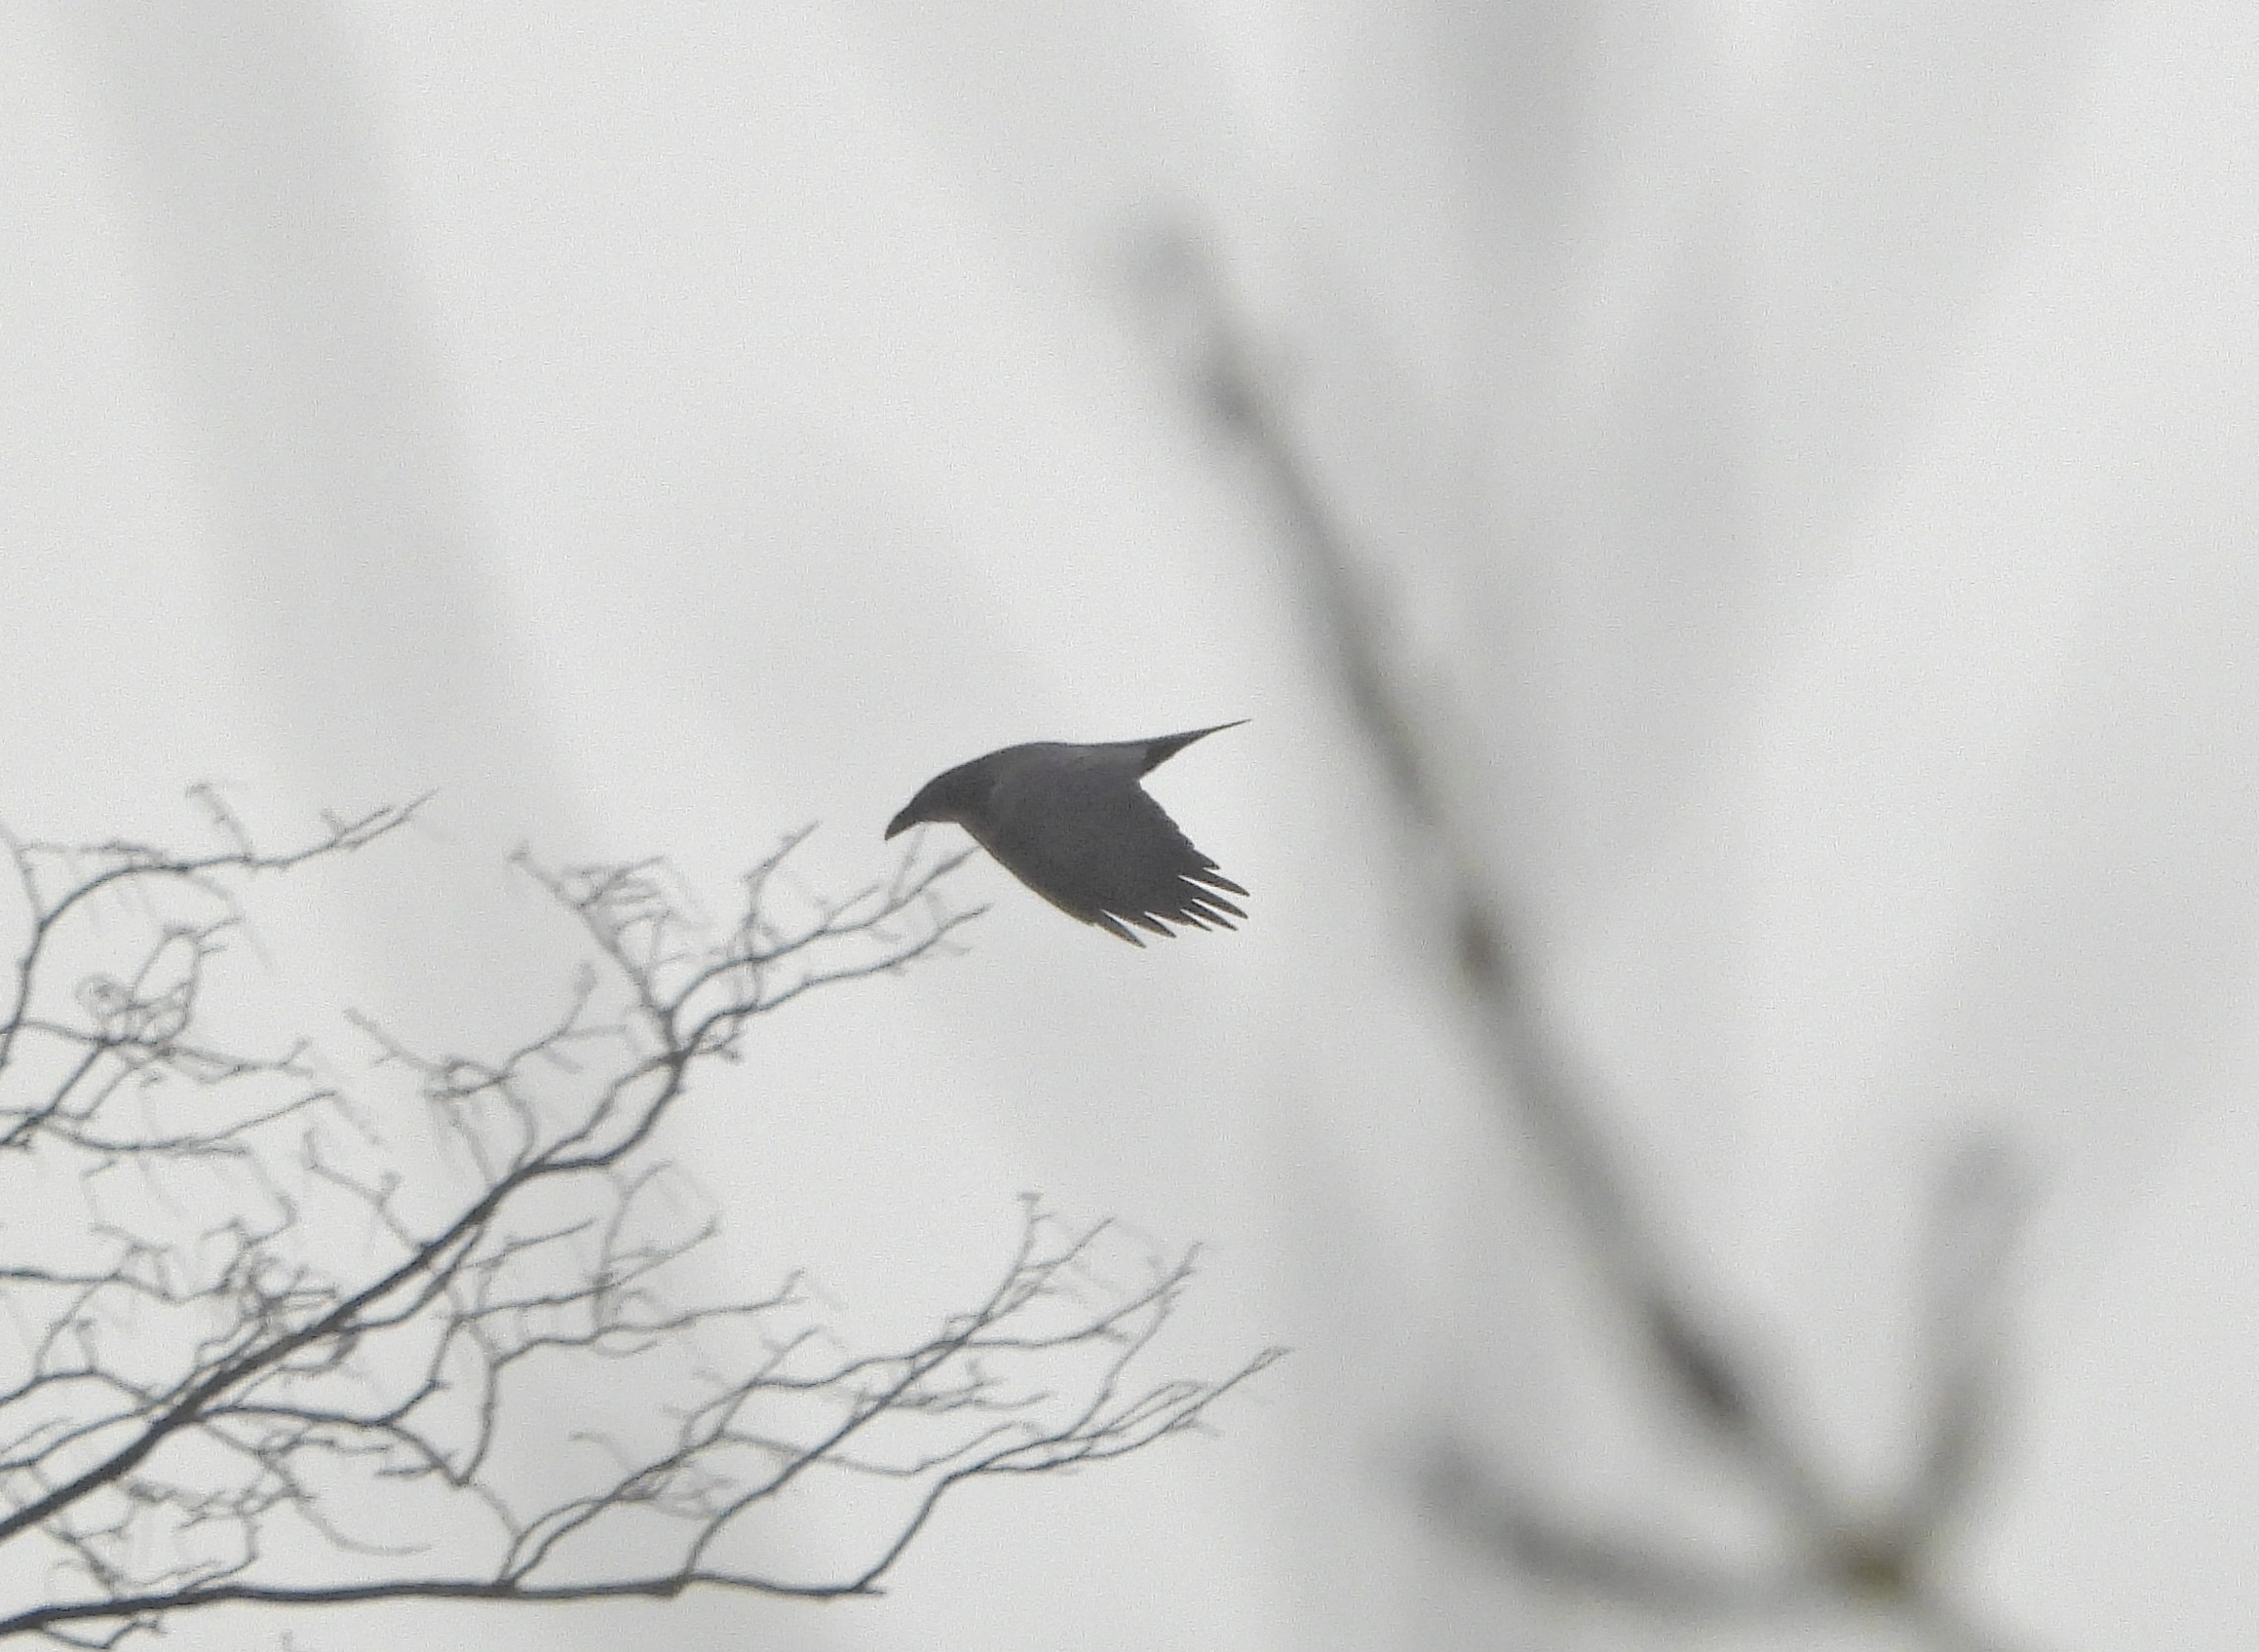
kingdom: Animalia
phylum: Chordata
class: Aves
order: Passeriformes
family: Corvidae
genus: Corvus
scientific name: Corvus corax
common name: Ravn
